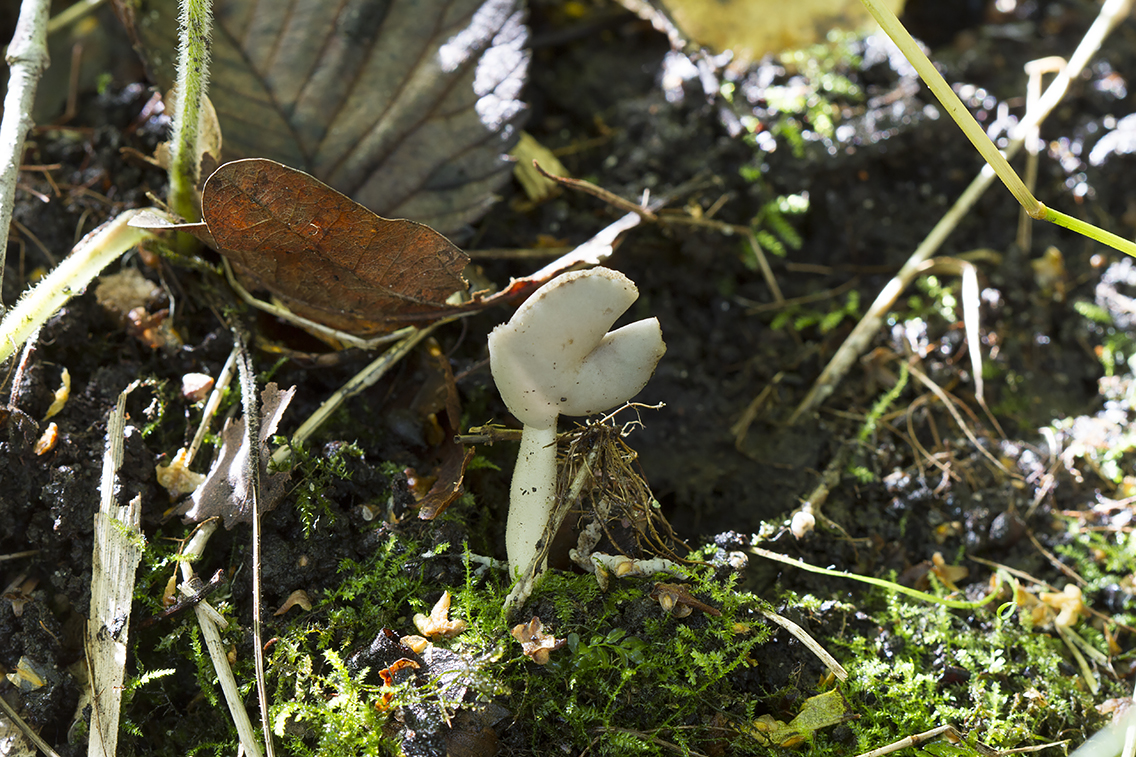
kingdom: Fungi
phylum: Ascomycota
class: Pezizomycetes
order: Pezizales
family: Helvellaceae
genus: Helvella
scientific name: Helvella
